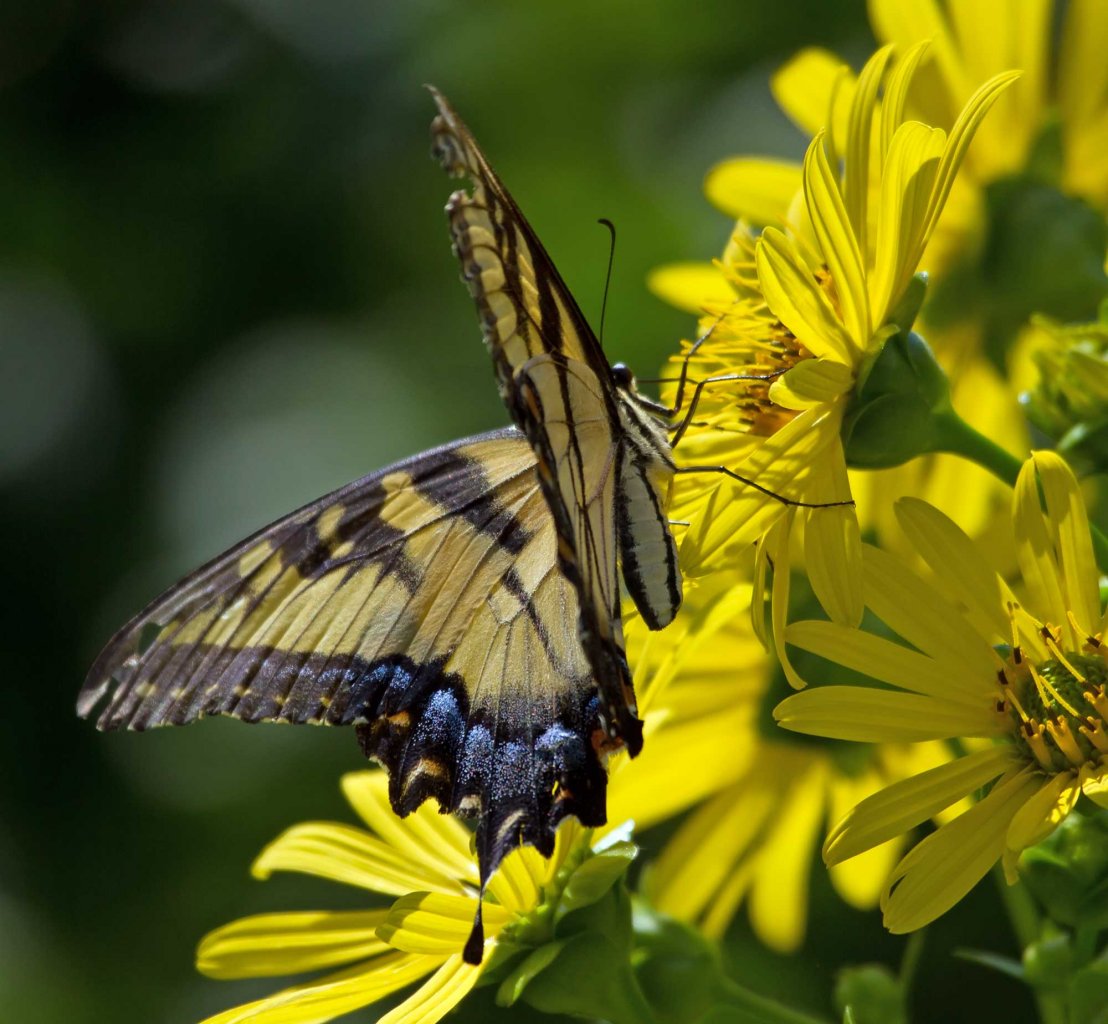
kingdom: Animalia
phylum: Arthropoda
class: Insecta
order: Lepidoptera
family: Papilionidae
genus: Pterourus
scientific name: Pterourus glaucus
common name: Eastern Tiger Swallowtail
